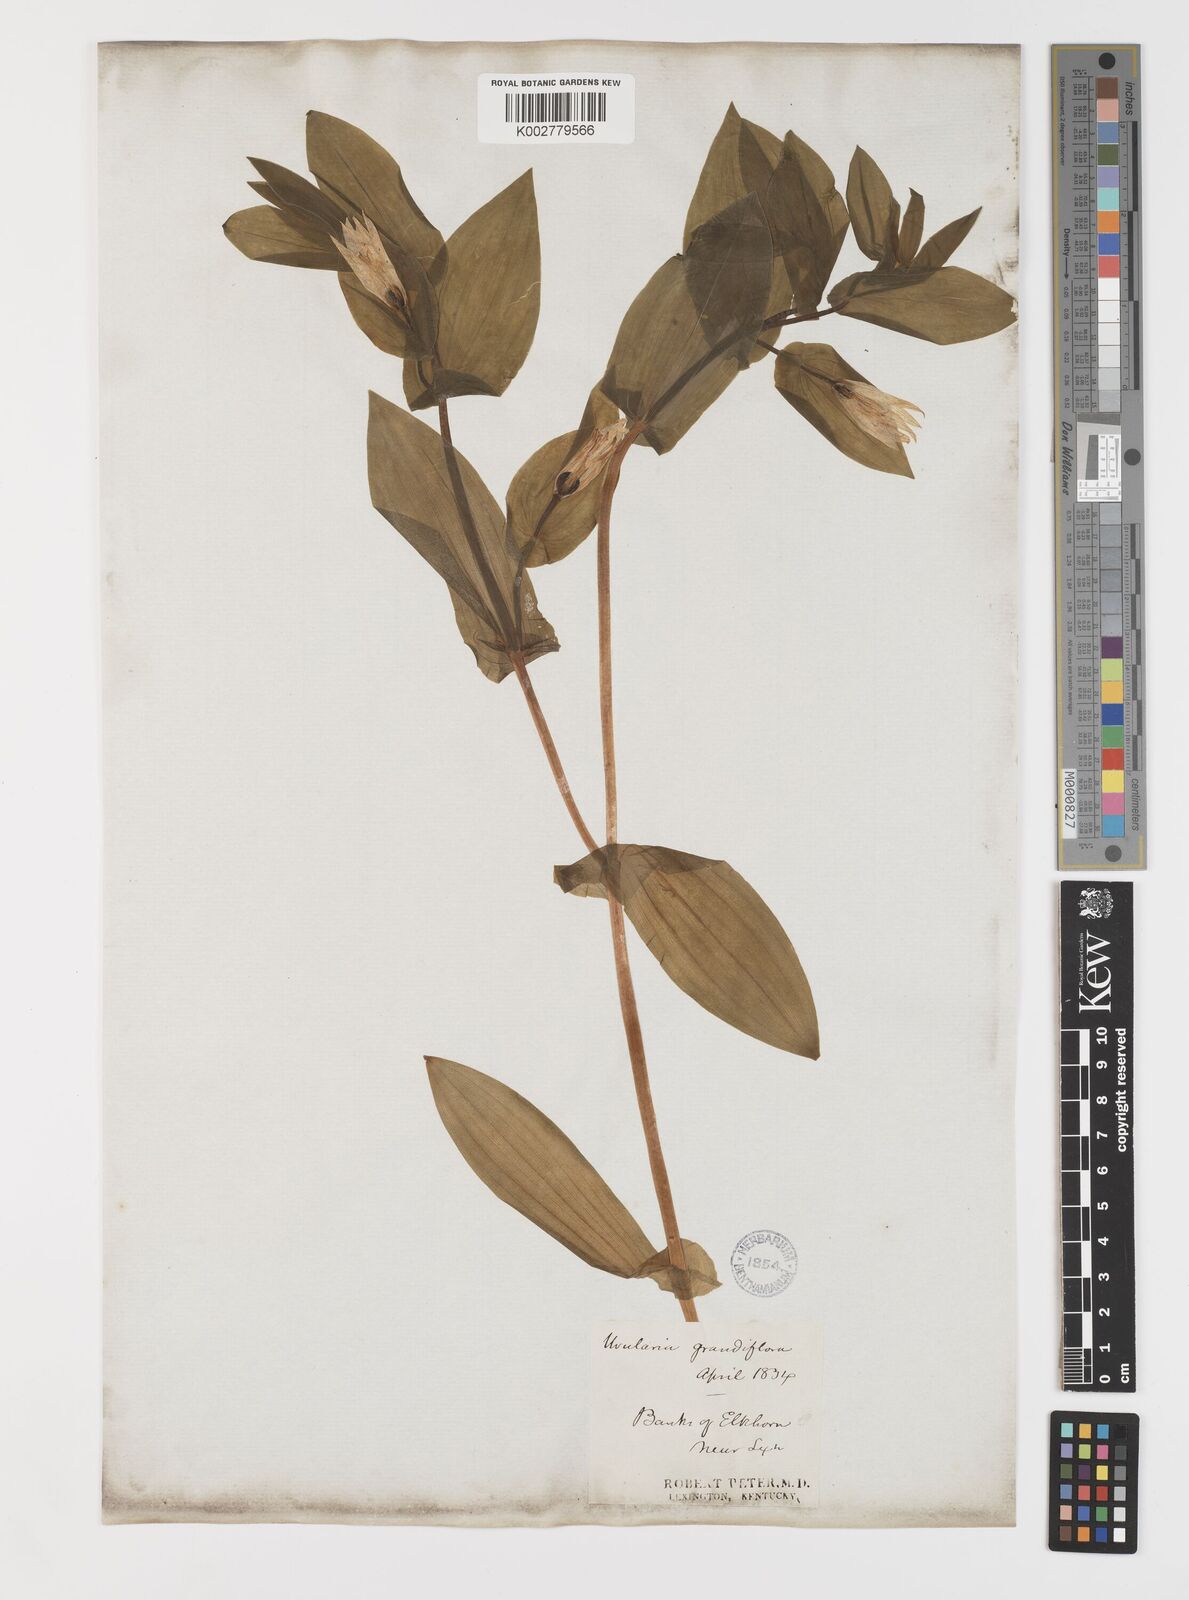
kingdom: Plantae
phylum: Tracheophyta
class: Liliopsida
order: Liliales
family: Colchicaceae
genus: Uvularia
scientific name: Uvularia grandiflora
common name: Bellwort
